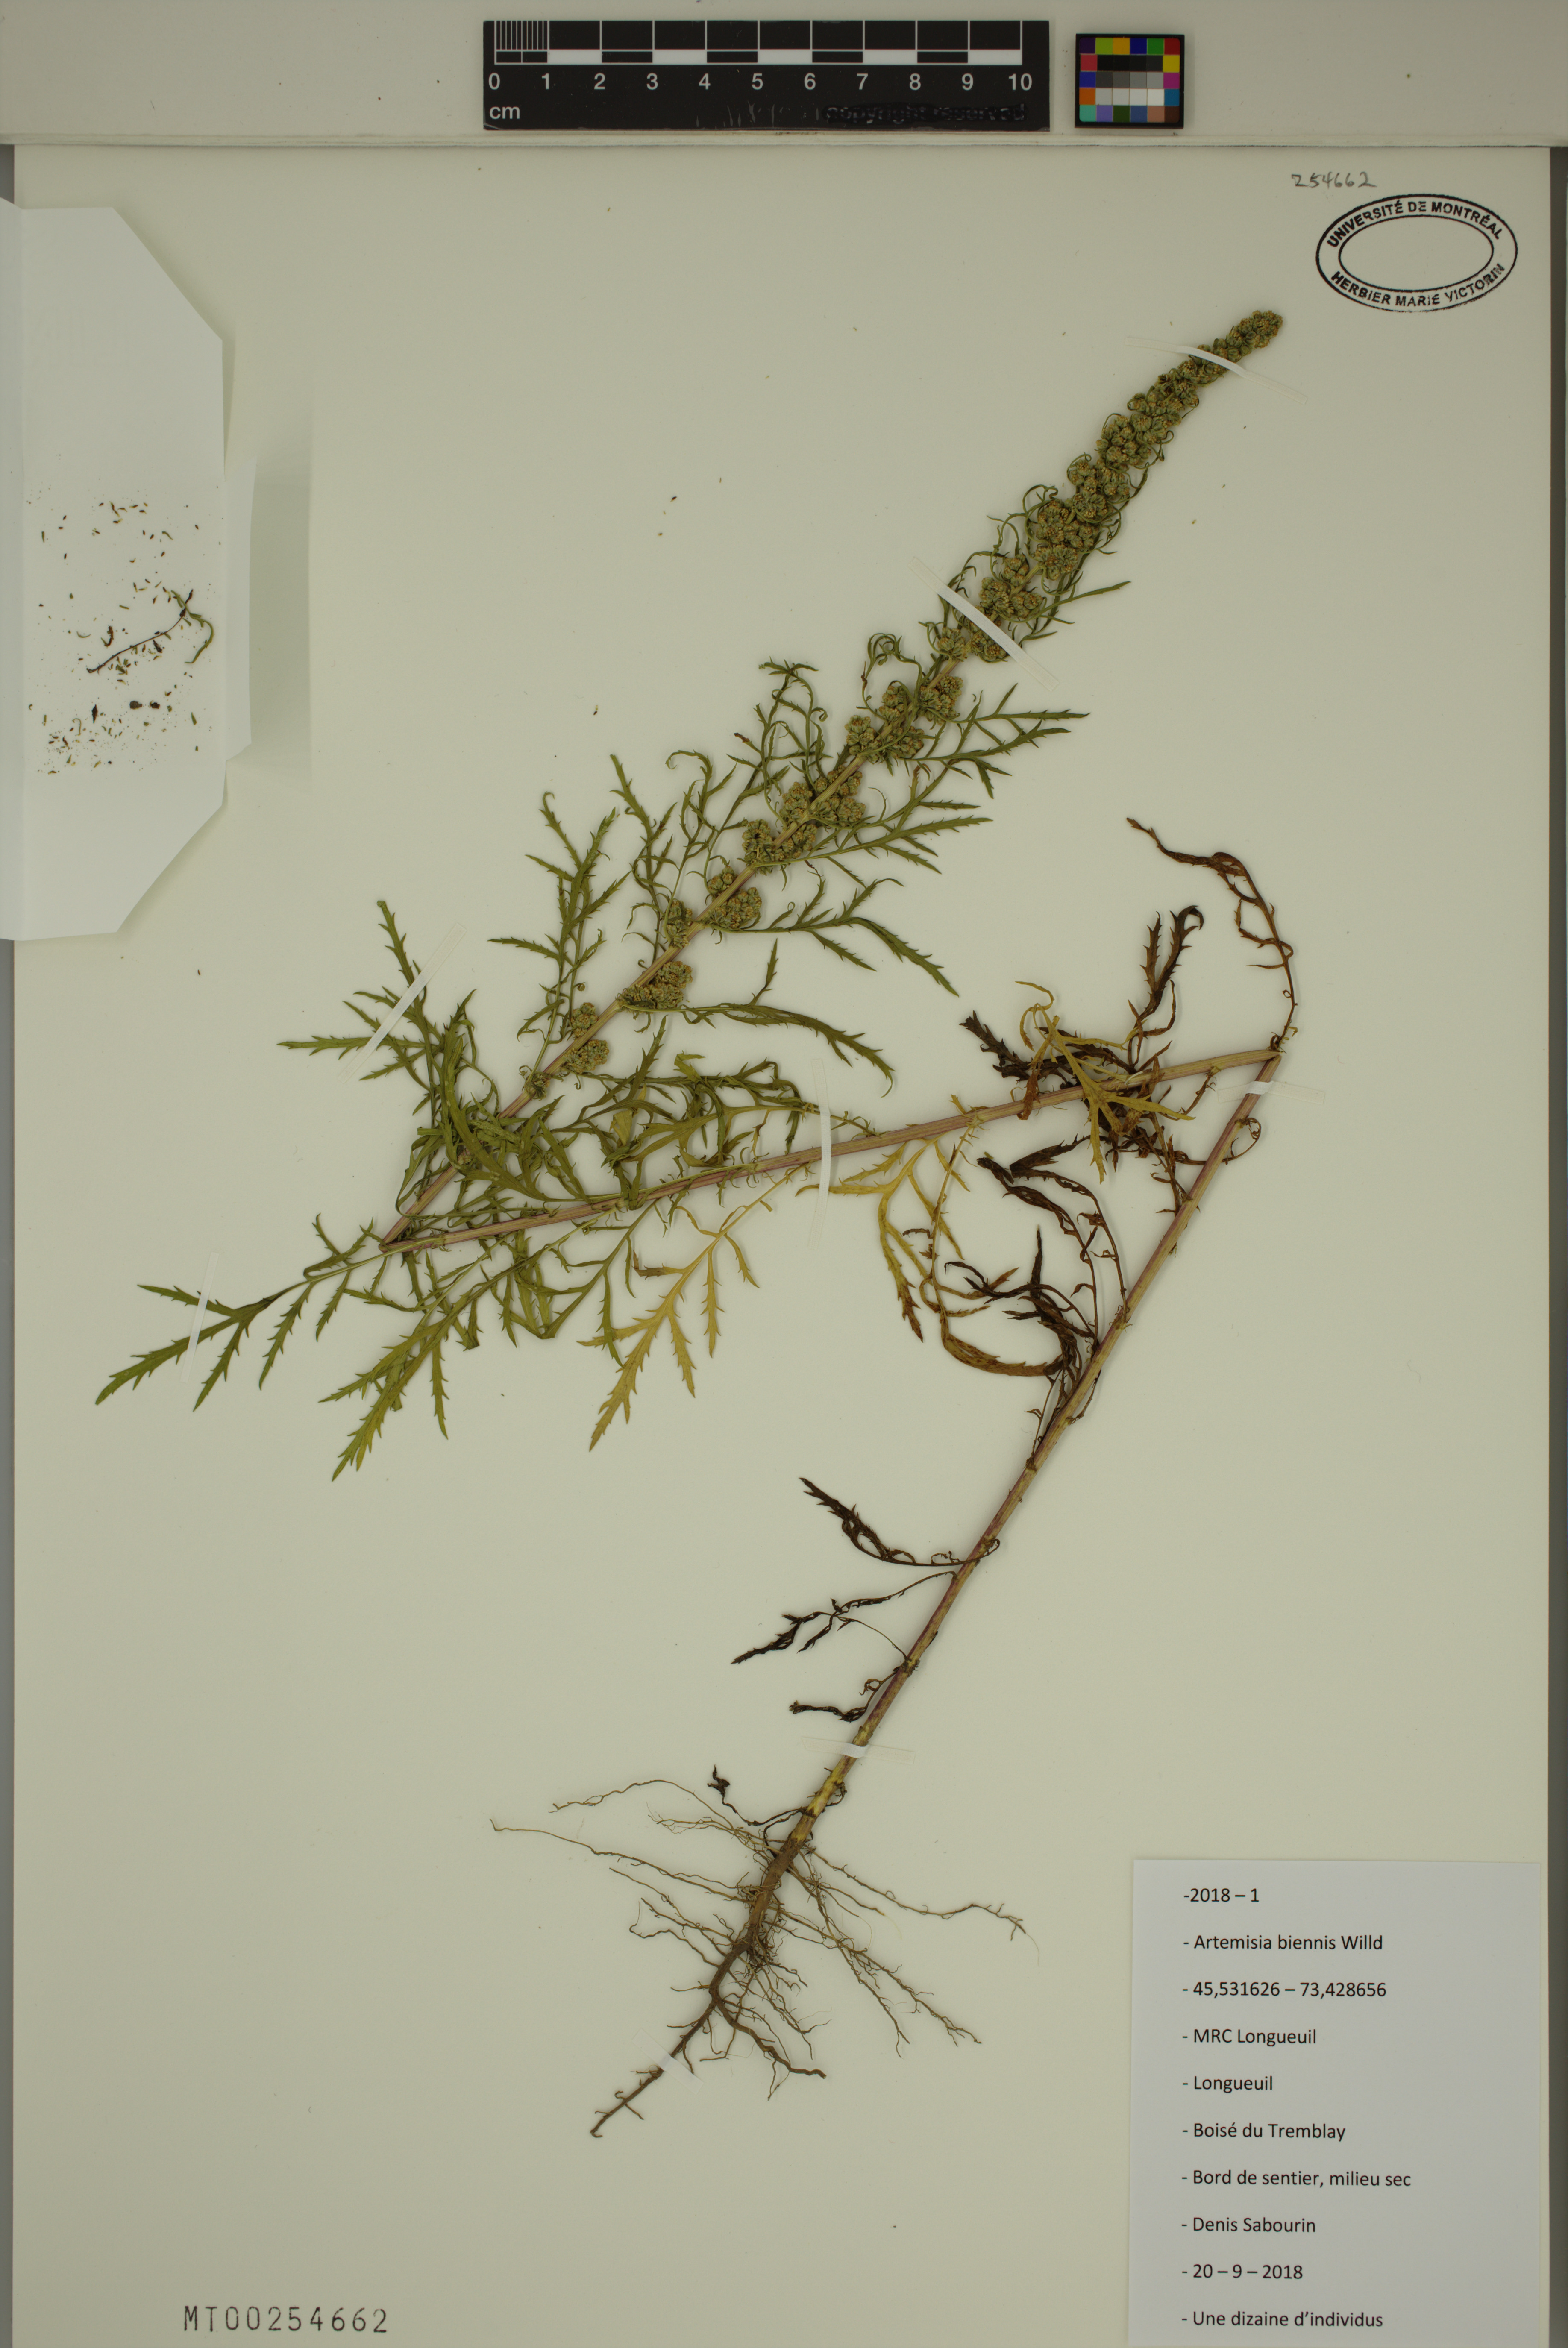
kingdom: Plantae
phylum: Tracheophyta
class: Magnoliopsida
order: Asterales
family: Asteraceae
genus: Artemisia
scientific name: Artemisia biennis
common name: Biennial wormwood
